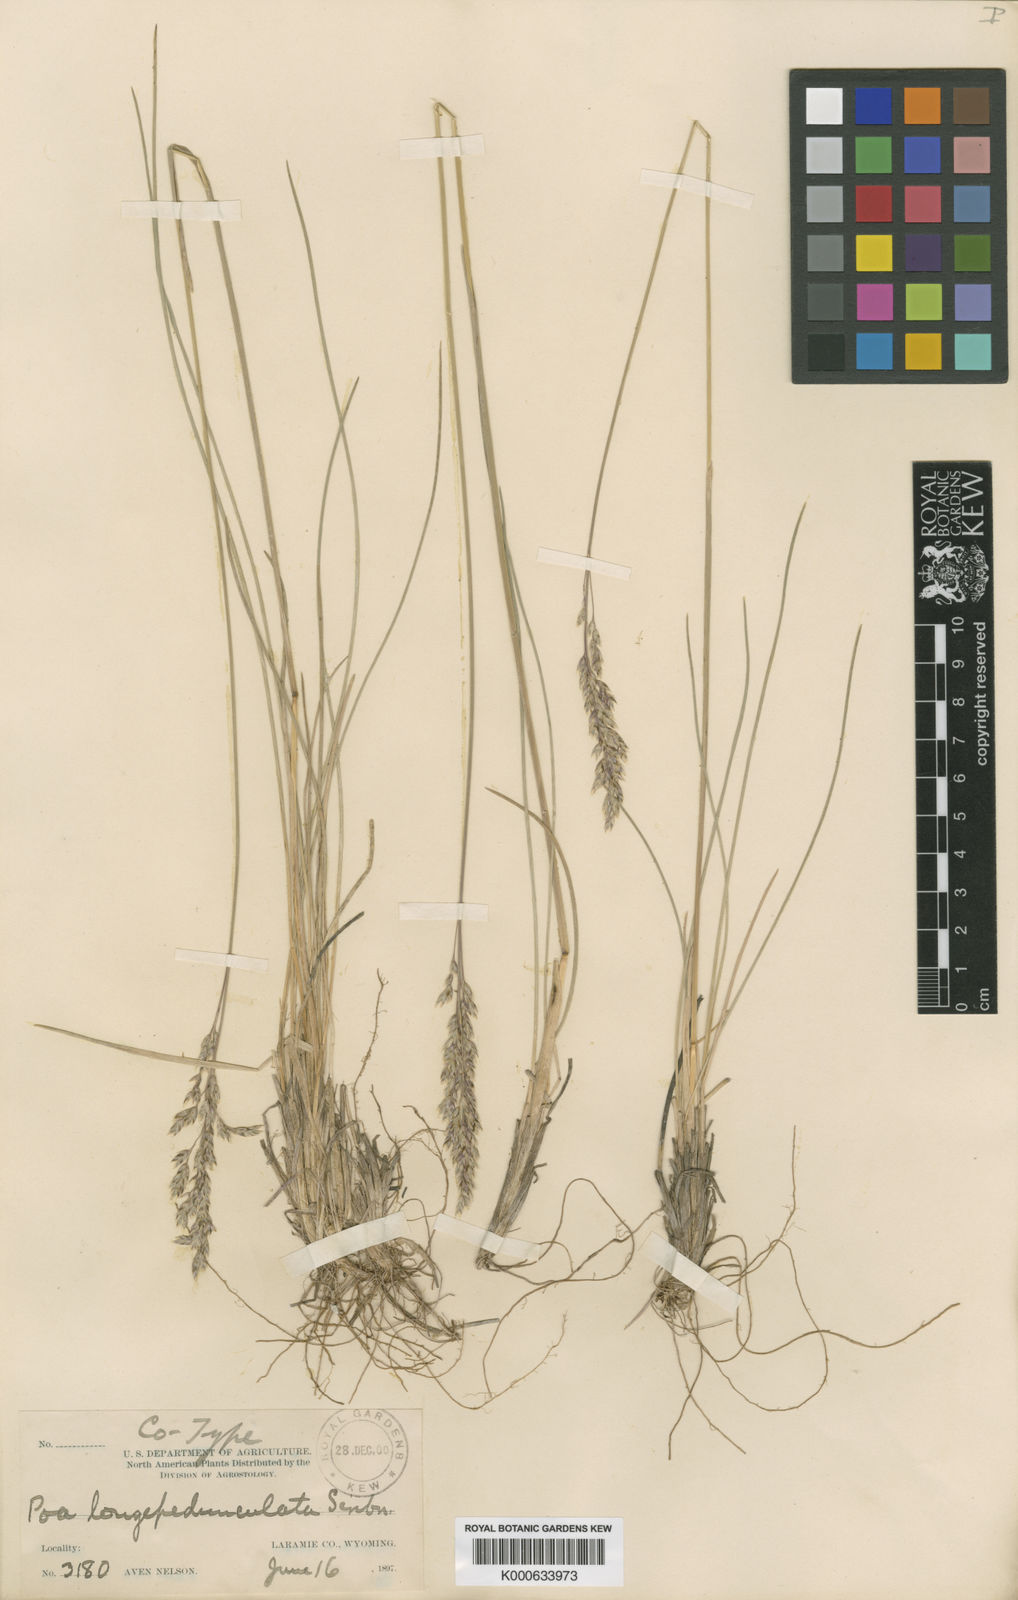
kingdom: Plantae
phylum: Tracheophyta
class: Liliopsida
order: Poales
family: Poaceae
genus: Poa
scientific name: Poa fendleriana
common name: Mutton bluegrass
